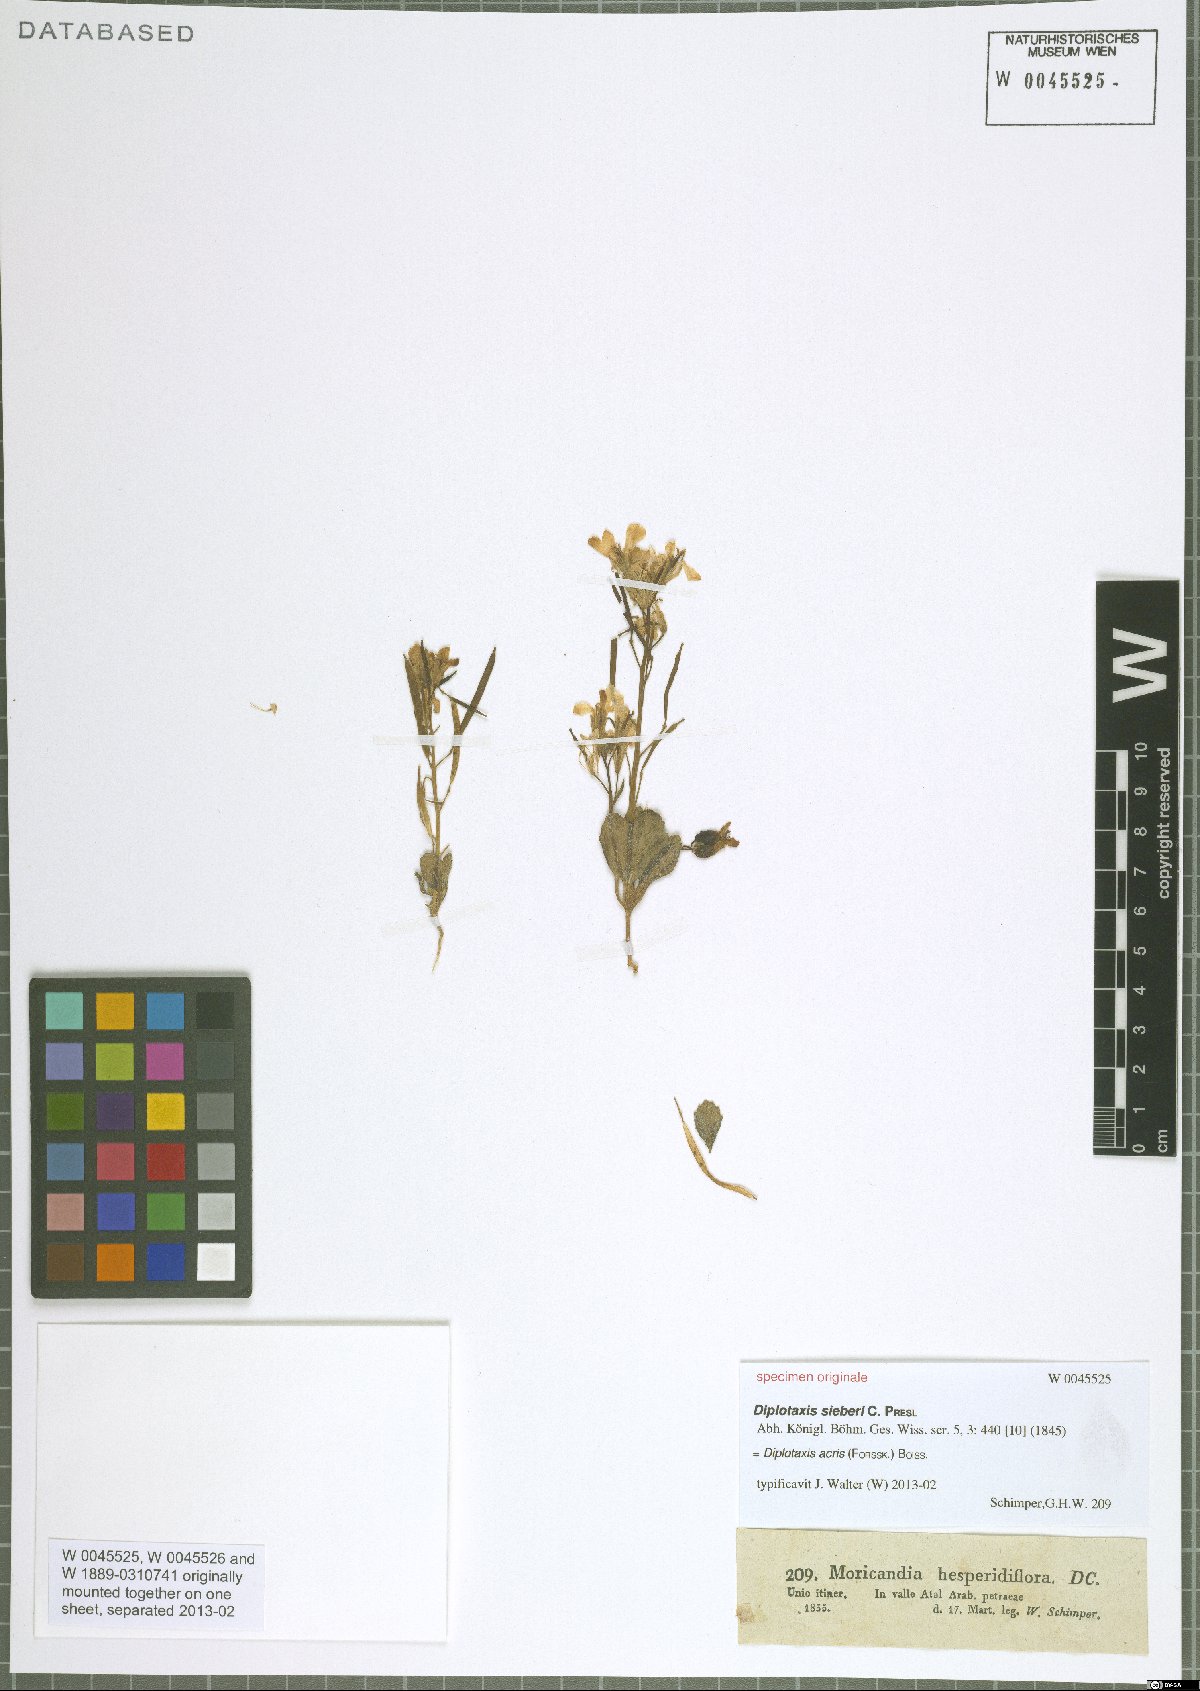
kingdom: Plantae
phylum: Tracheophyta
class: Magnoliopsida
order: Brassicales
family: Brassicaceae
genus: Diplotaxis
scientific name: Diplotaxis acris
